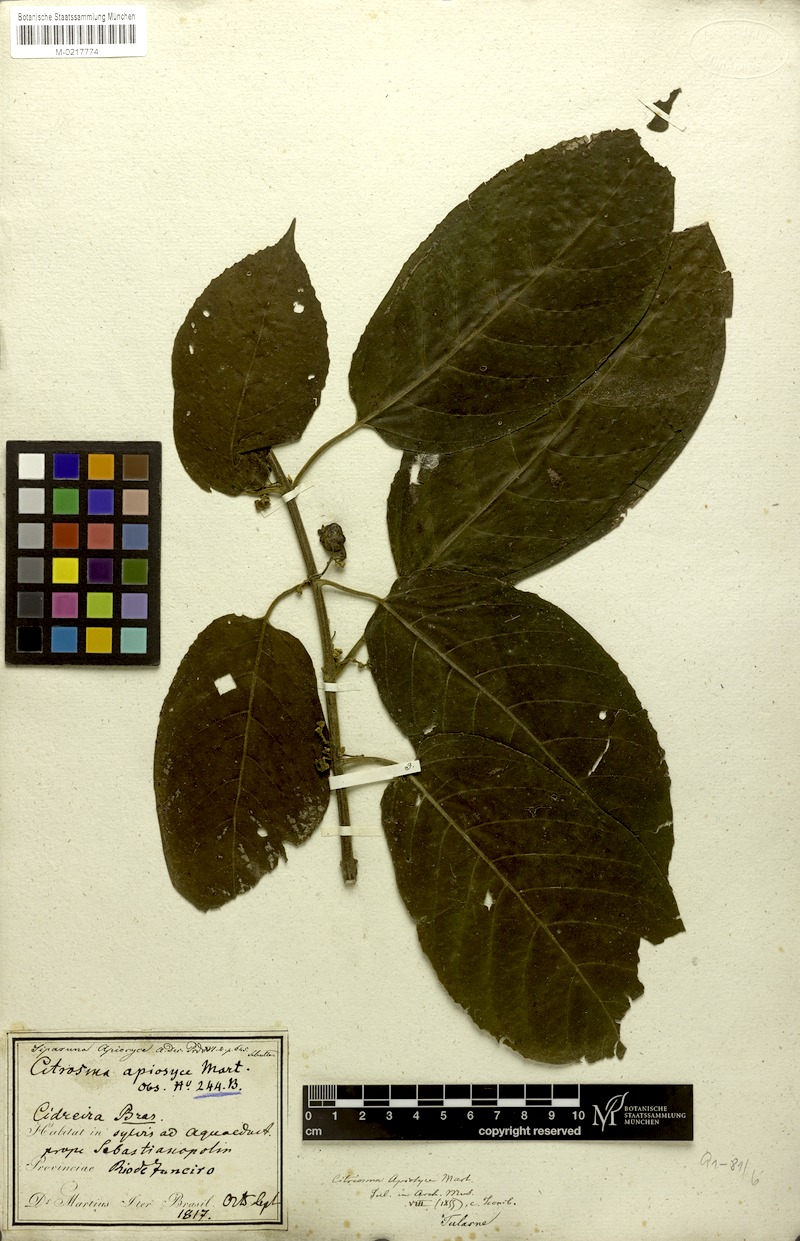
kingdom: Plantae
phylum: Tracheophyta
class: Magnoliopsida
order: Laurales
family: Siparunaceae
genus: Siparuna
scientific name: Siparuna brasiliensis
